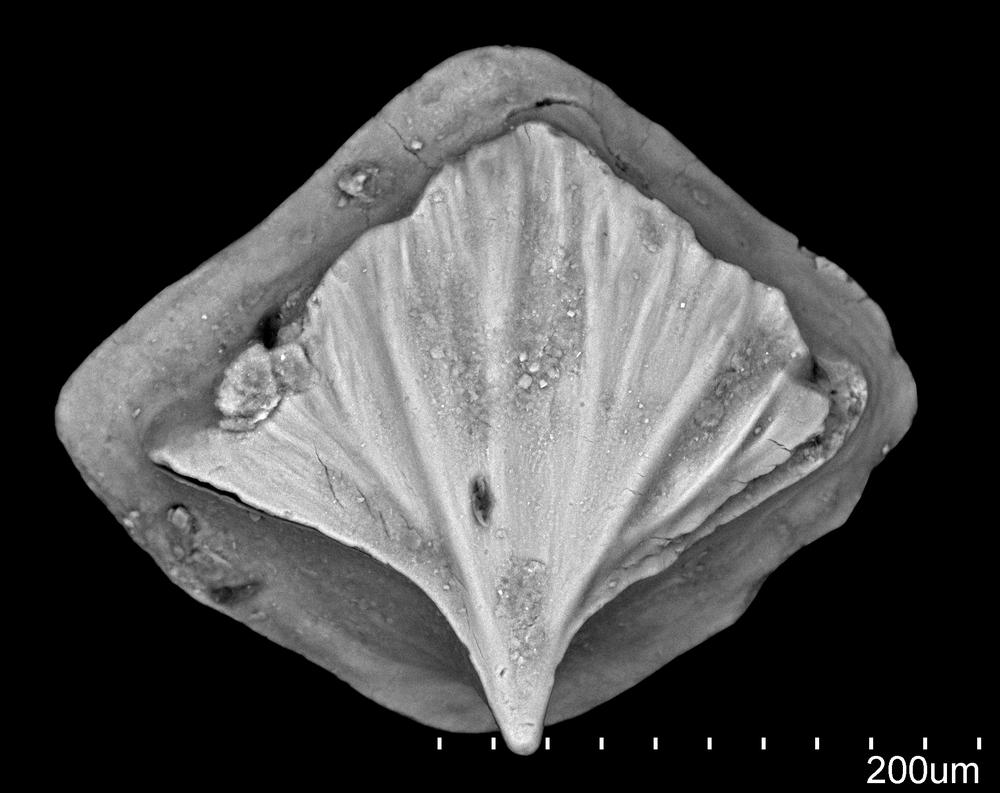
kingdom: Animalia
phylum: Chordata
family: Cheiracanthidae
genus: Ginkgolepis
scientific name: Ginkgolepis
